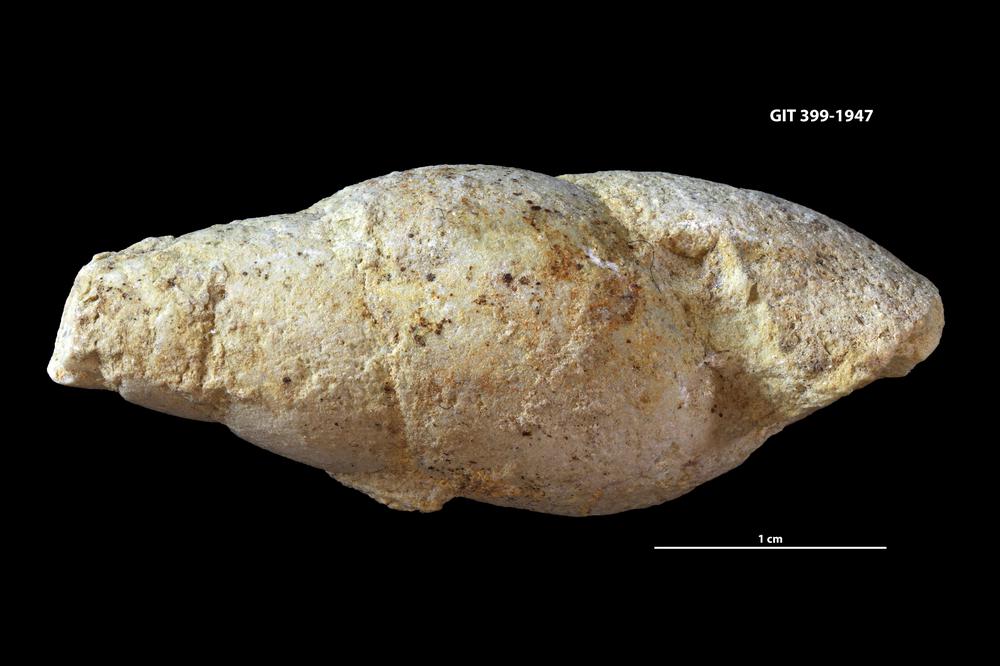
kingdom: Animalia
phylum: Mollusca
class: Gastropoda
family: Subulitidae
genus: Subulites
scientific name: Subulites amphora
